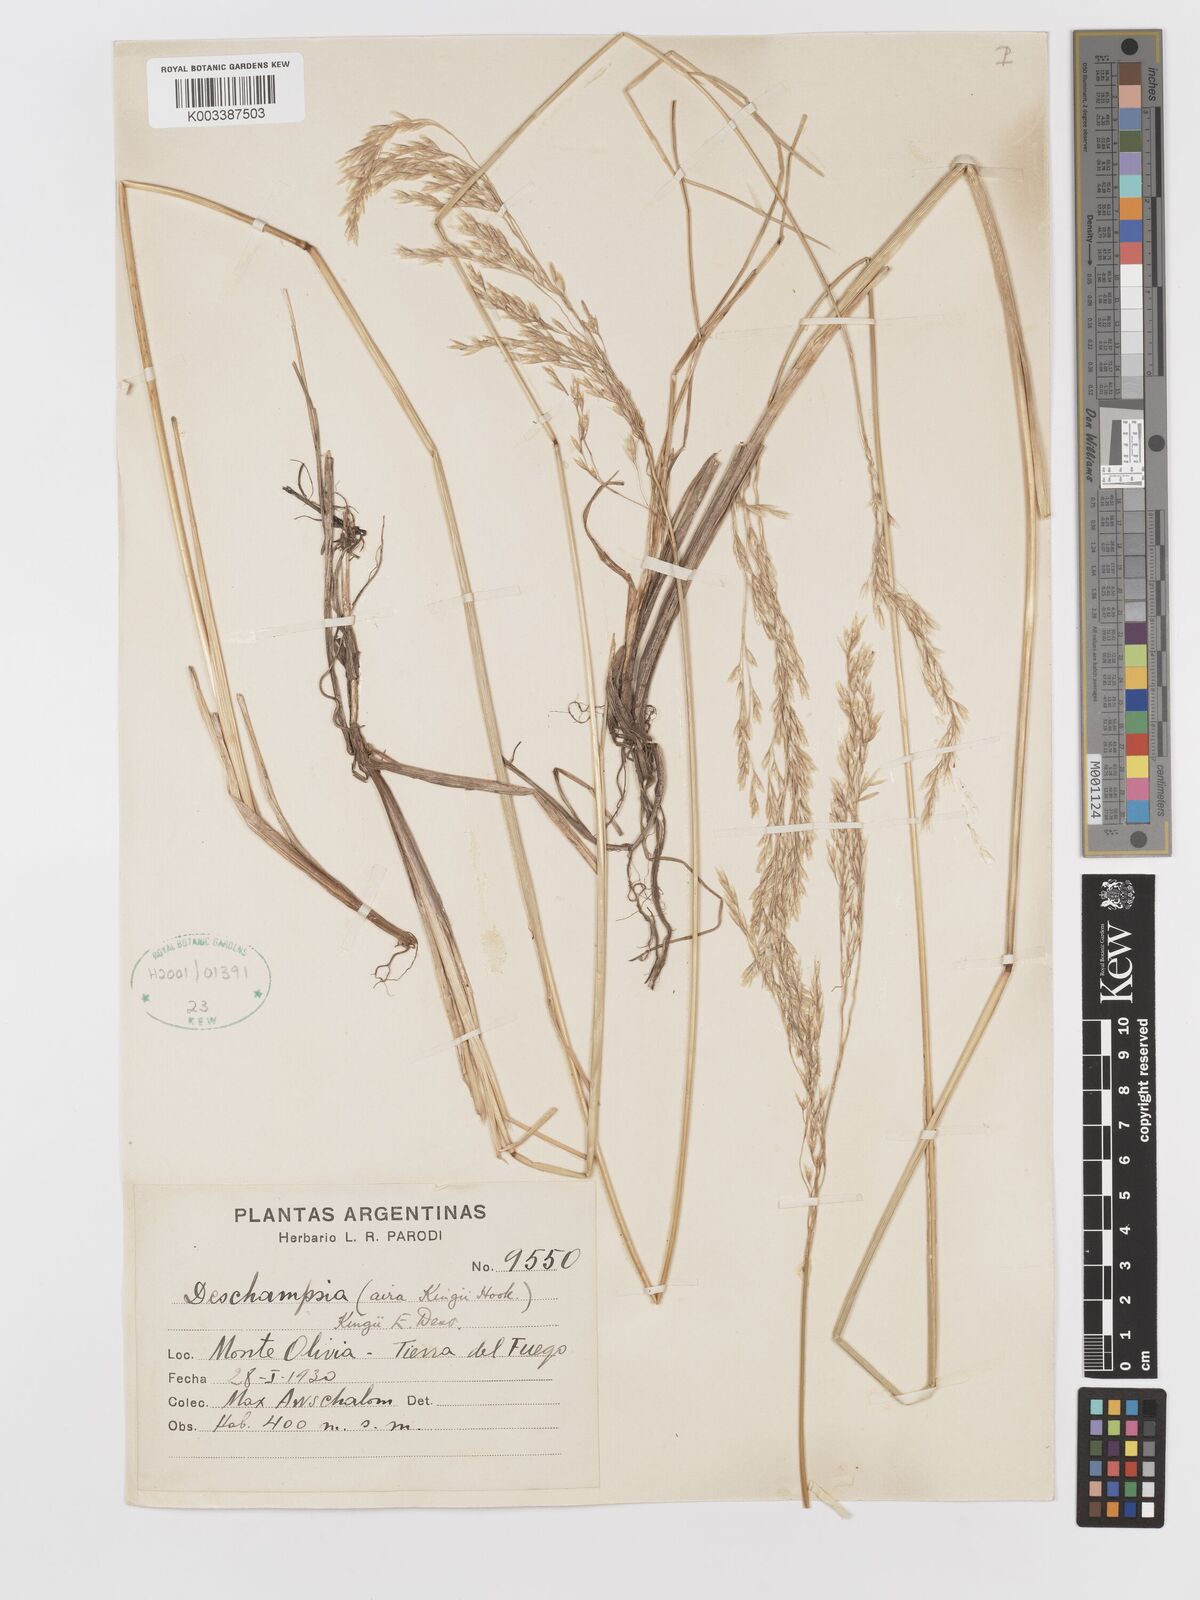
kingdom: Plantae
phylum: Tracheophyta
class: Liliopsida
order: Poales
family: Poaceae
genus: Deschampsia
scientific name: Deschampsia kingii
